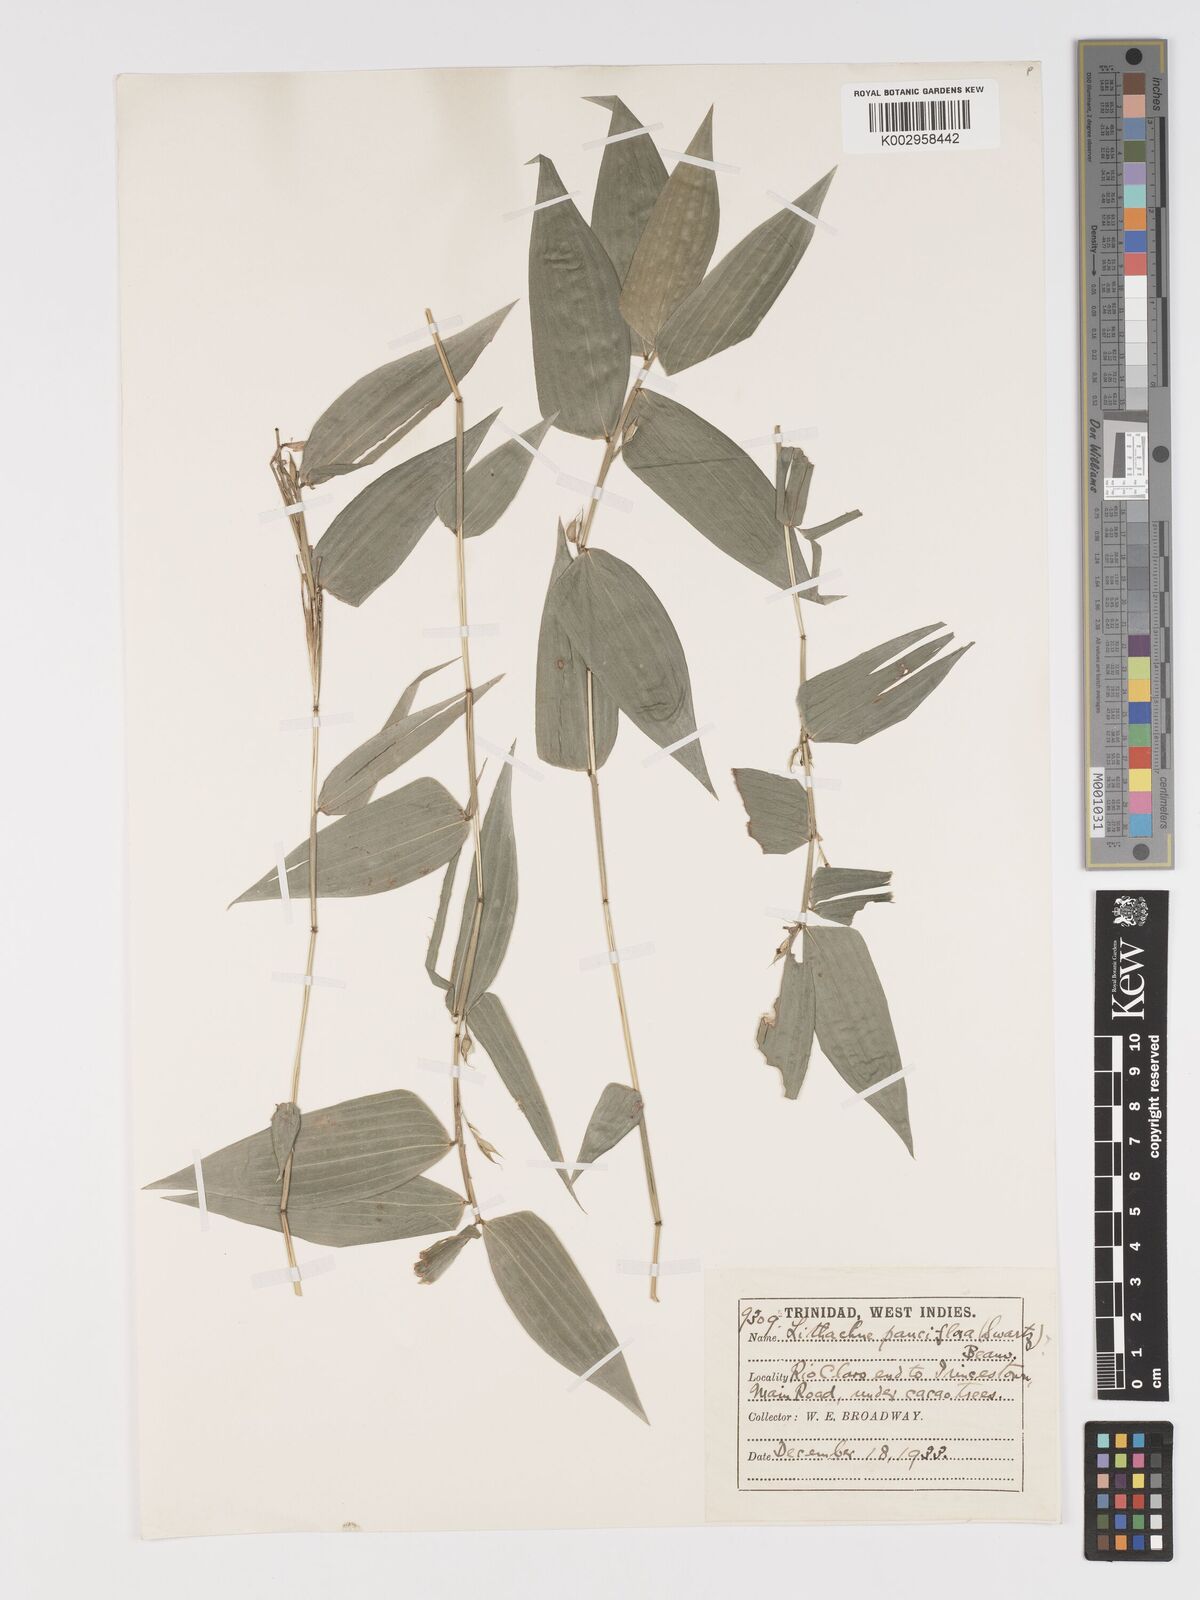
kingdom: Plantae
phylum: Tracheophyta
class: Liliopsida
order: Poales
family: Poaceae
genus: Lithachne
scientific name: Lithachne pauciflora
